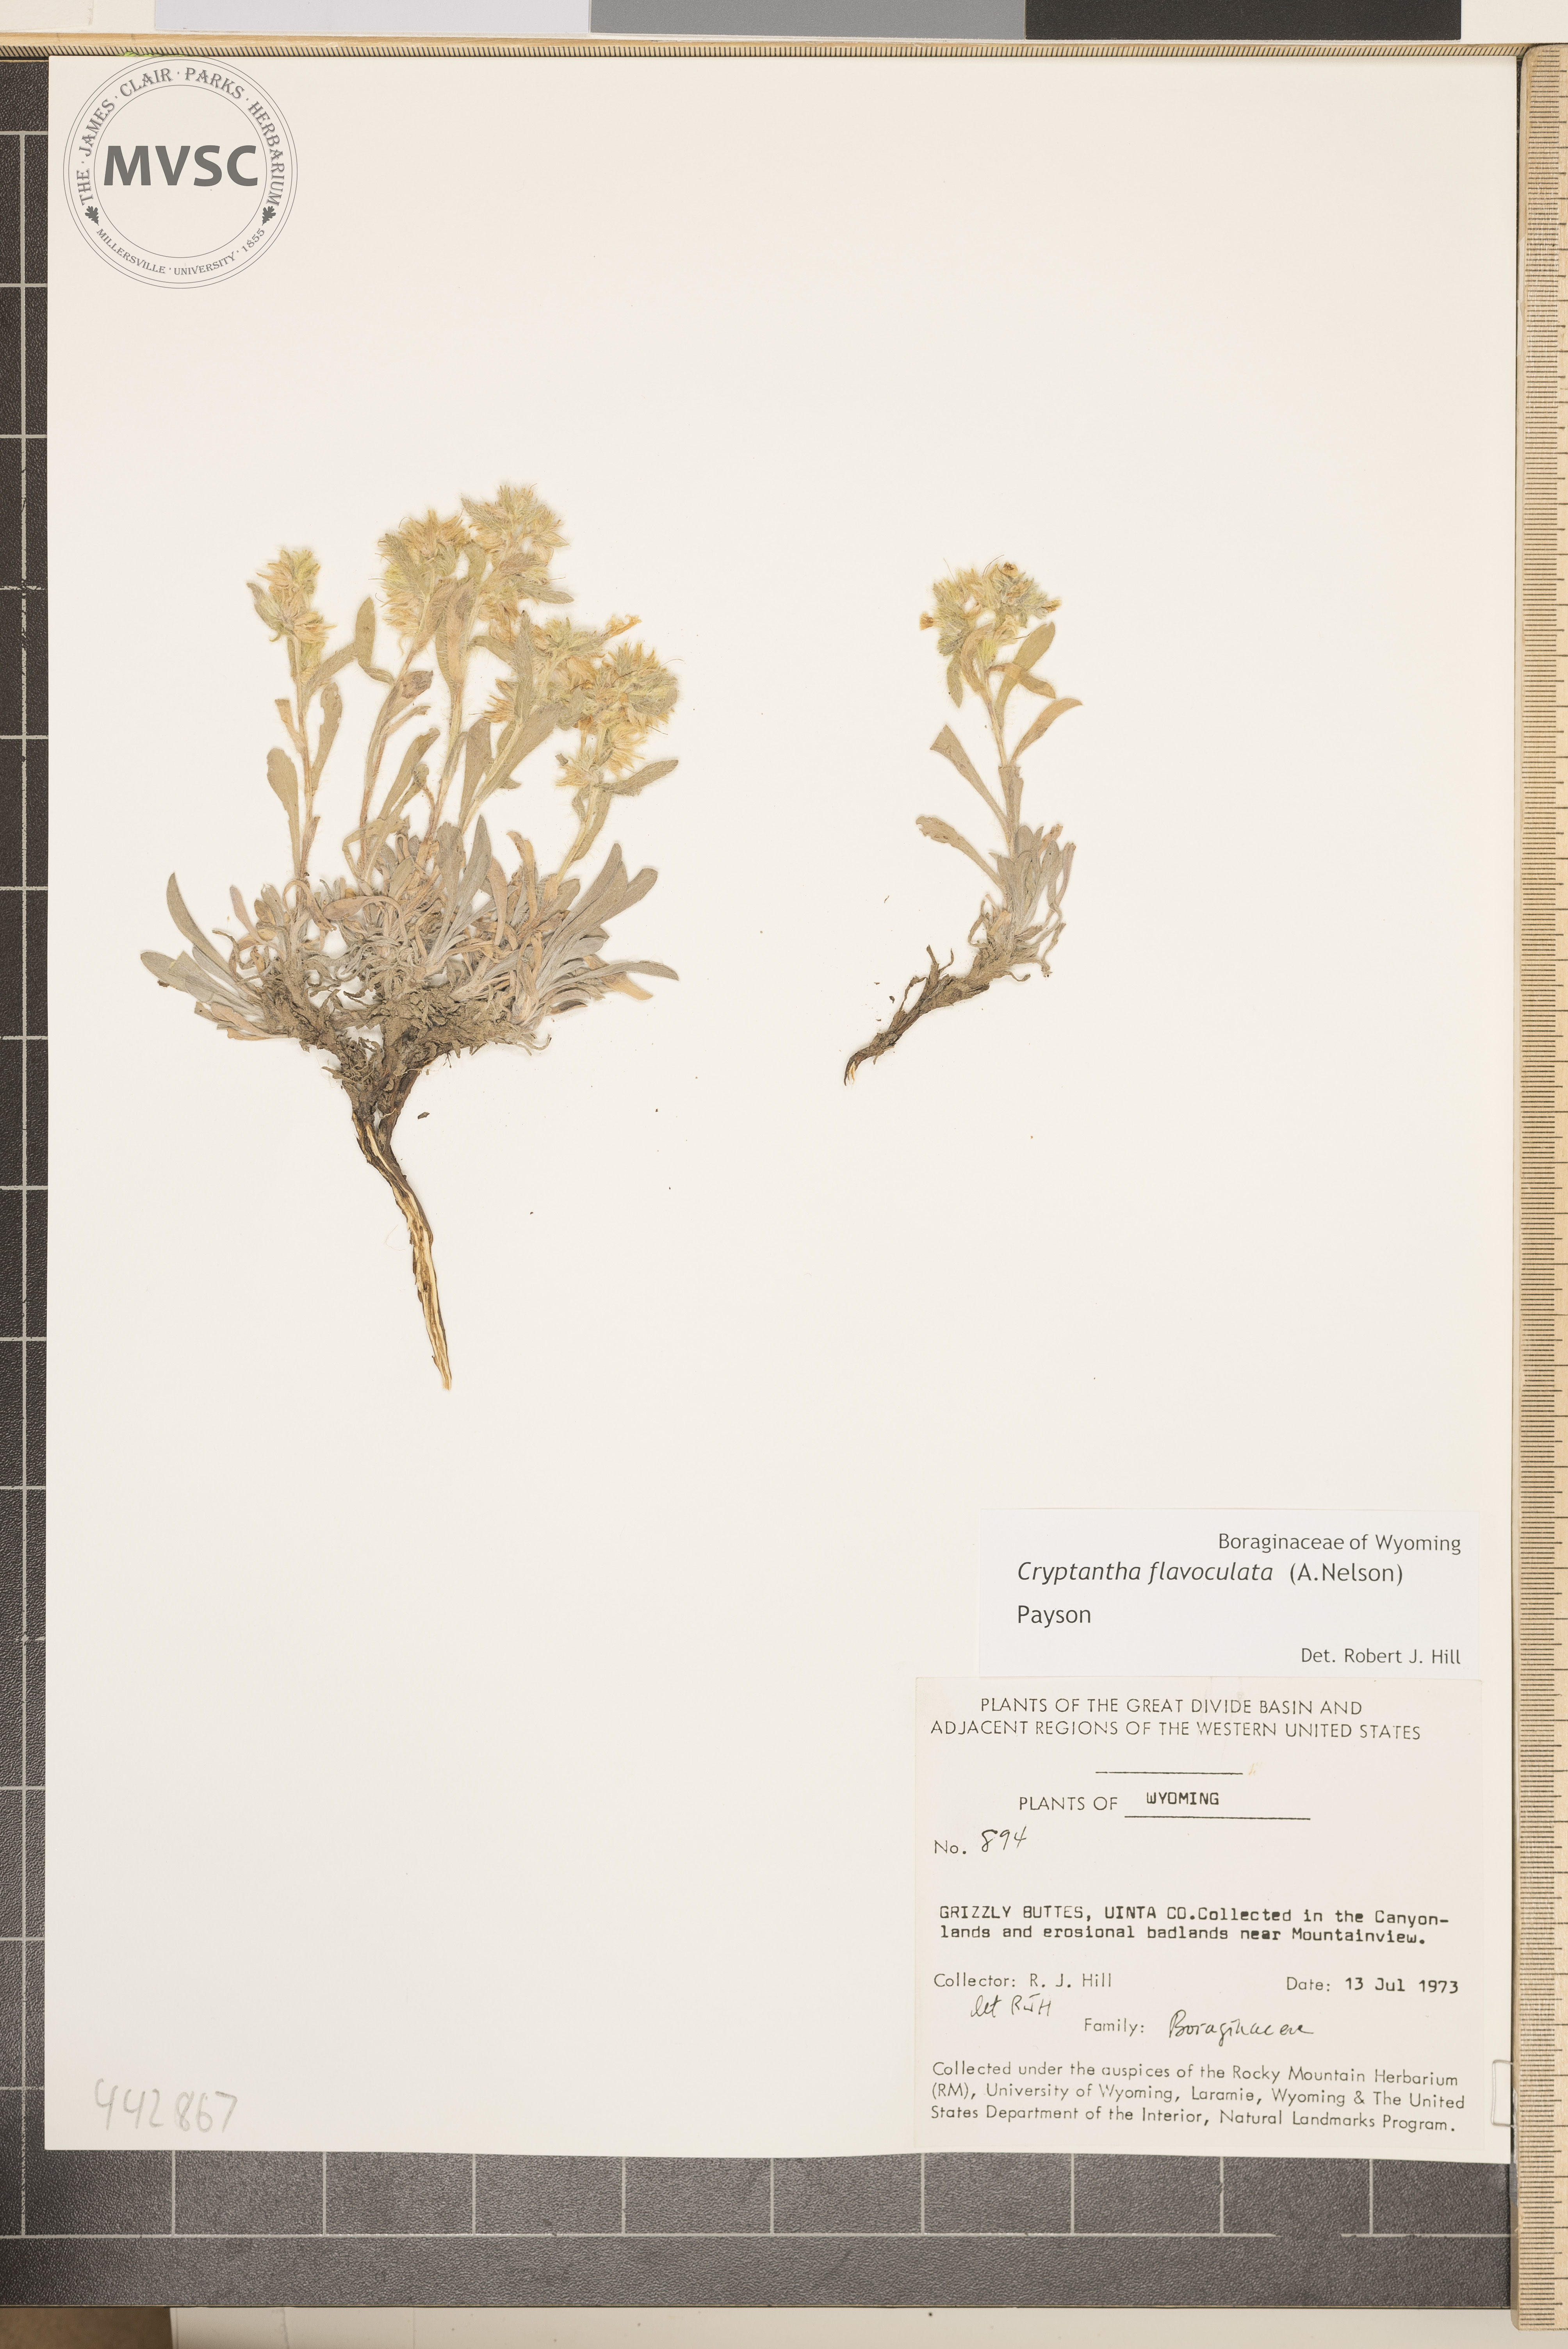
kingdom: Plantae
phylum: Tracheophyta
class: Magnoliopsida
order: Boraginales
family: Boraginaceae
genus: Oreocarya
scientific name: Oreocarya flavoculata
